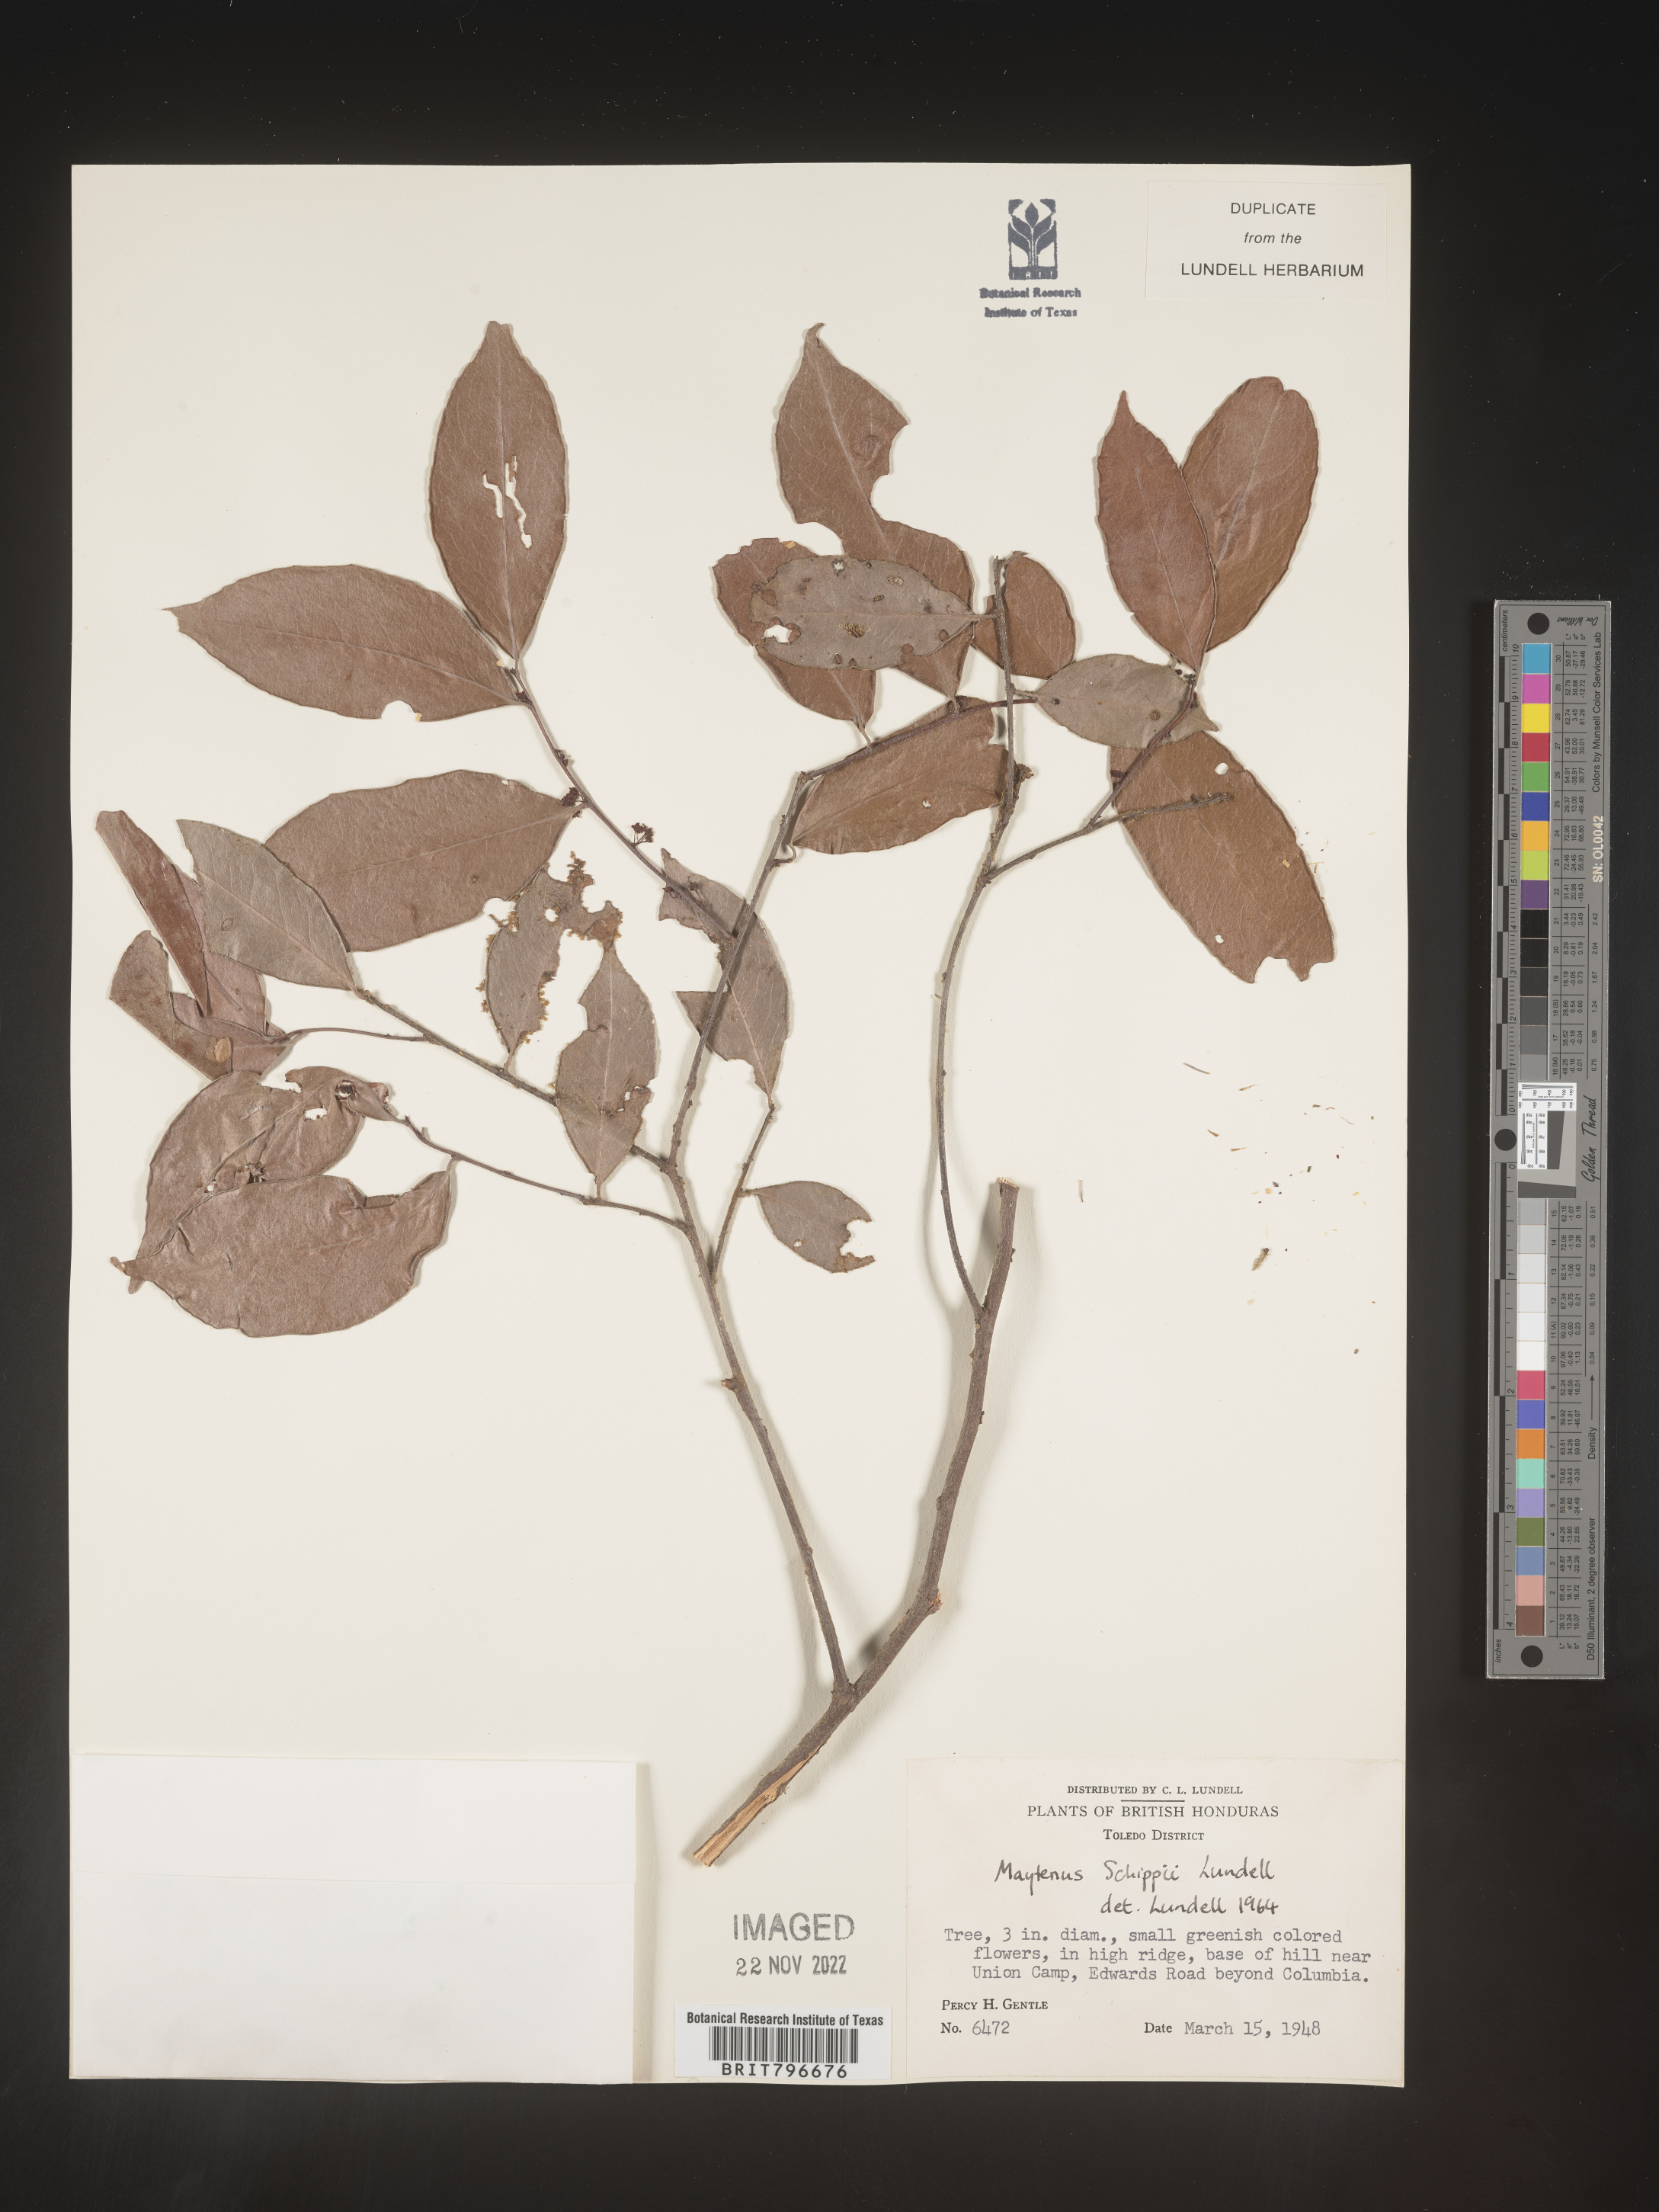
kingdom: Plantae
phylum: Tracheophyta
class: Magnoliopsida
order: Celastrales
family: Celastraceae
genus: Monteverdia
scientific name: Monteverdia schippii
